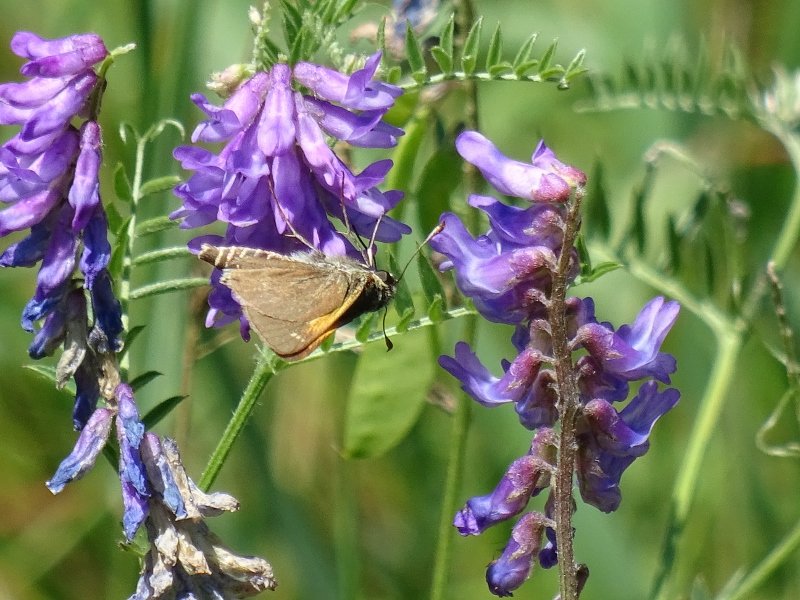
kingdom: Animalia
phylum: Arthropoda
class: Insecta
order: Lepidoptera
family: Hesperiidae
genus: Polites
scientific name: Polites themistocles
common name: Tawny-edged Skipper
